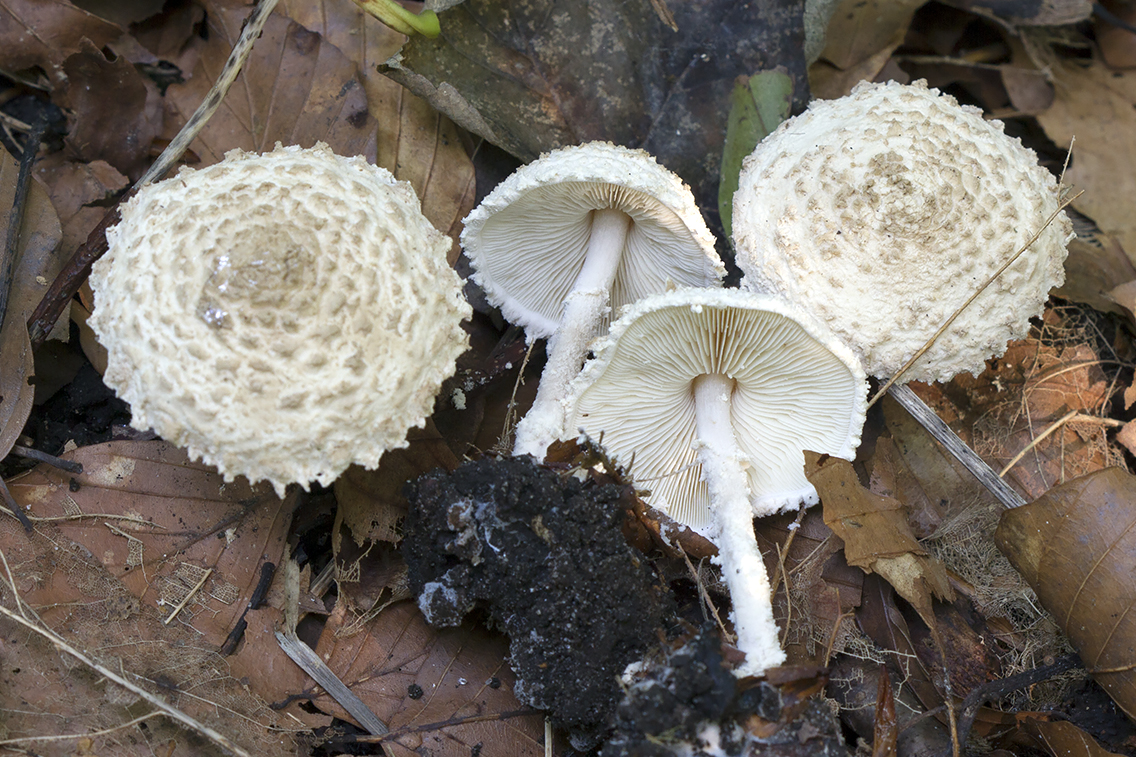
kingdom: Fungi
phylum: Basidiomycota
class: Agaricomycetes
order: Agaricales
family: Agaricaceae
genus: Cystolepiota
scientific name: Cystolepiota adulterina
